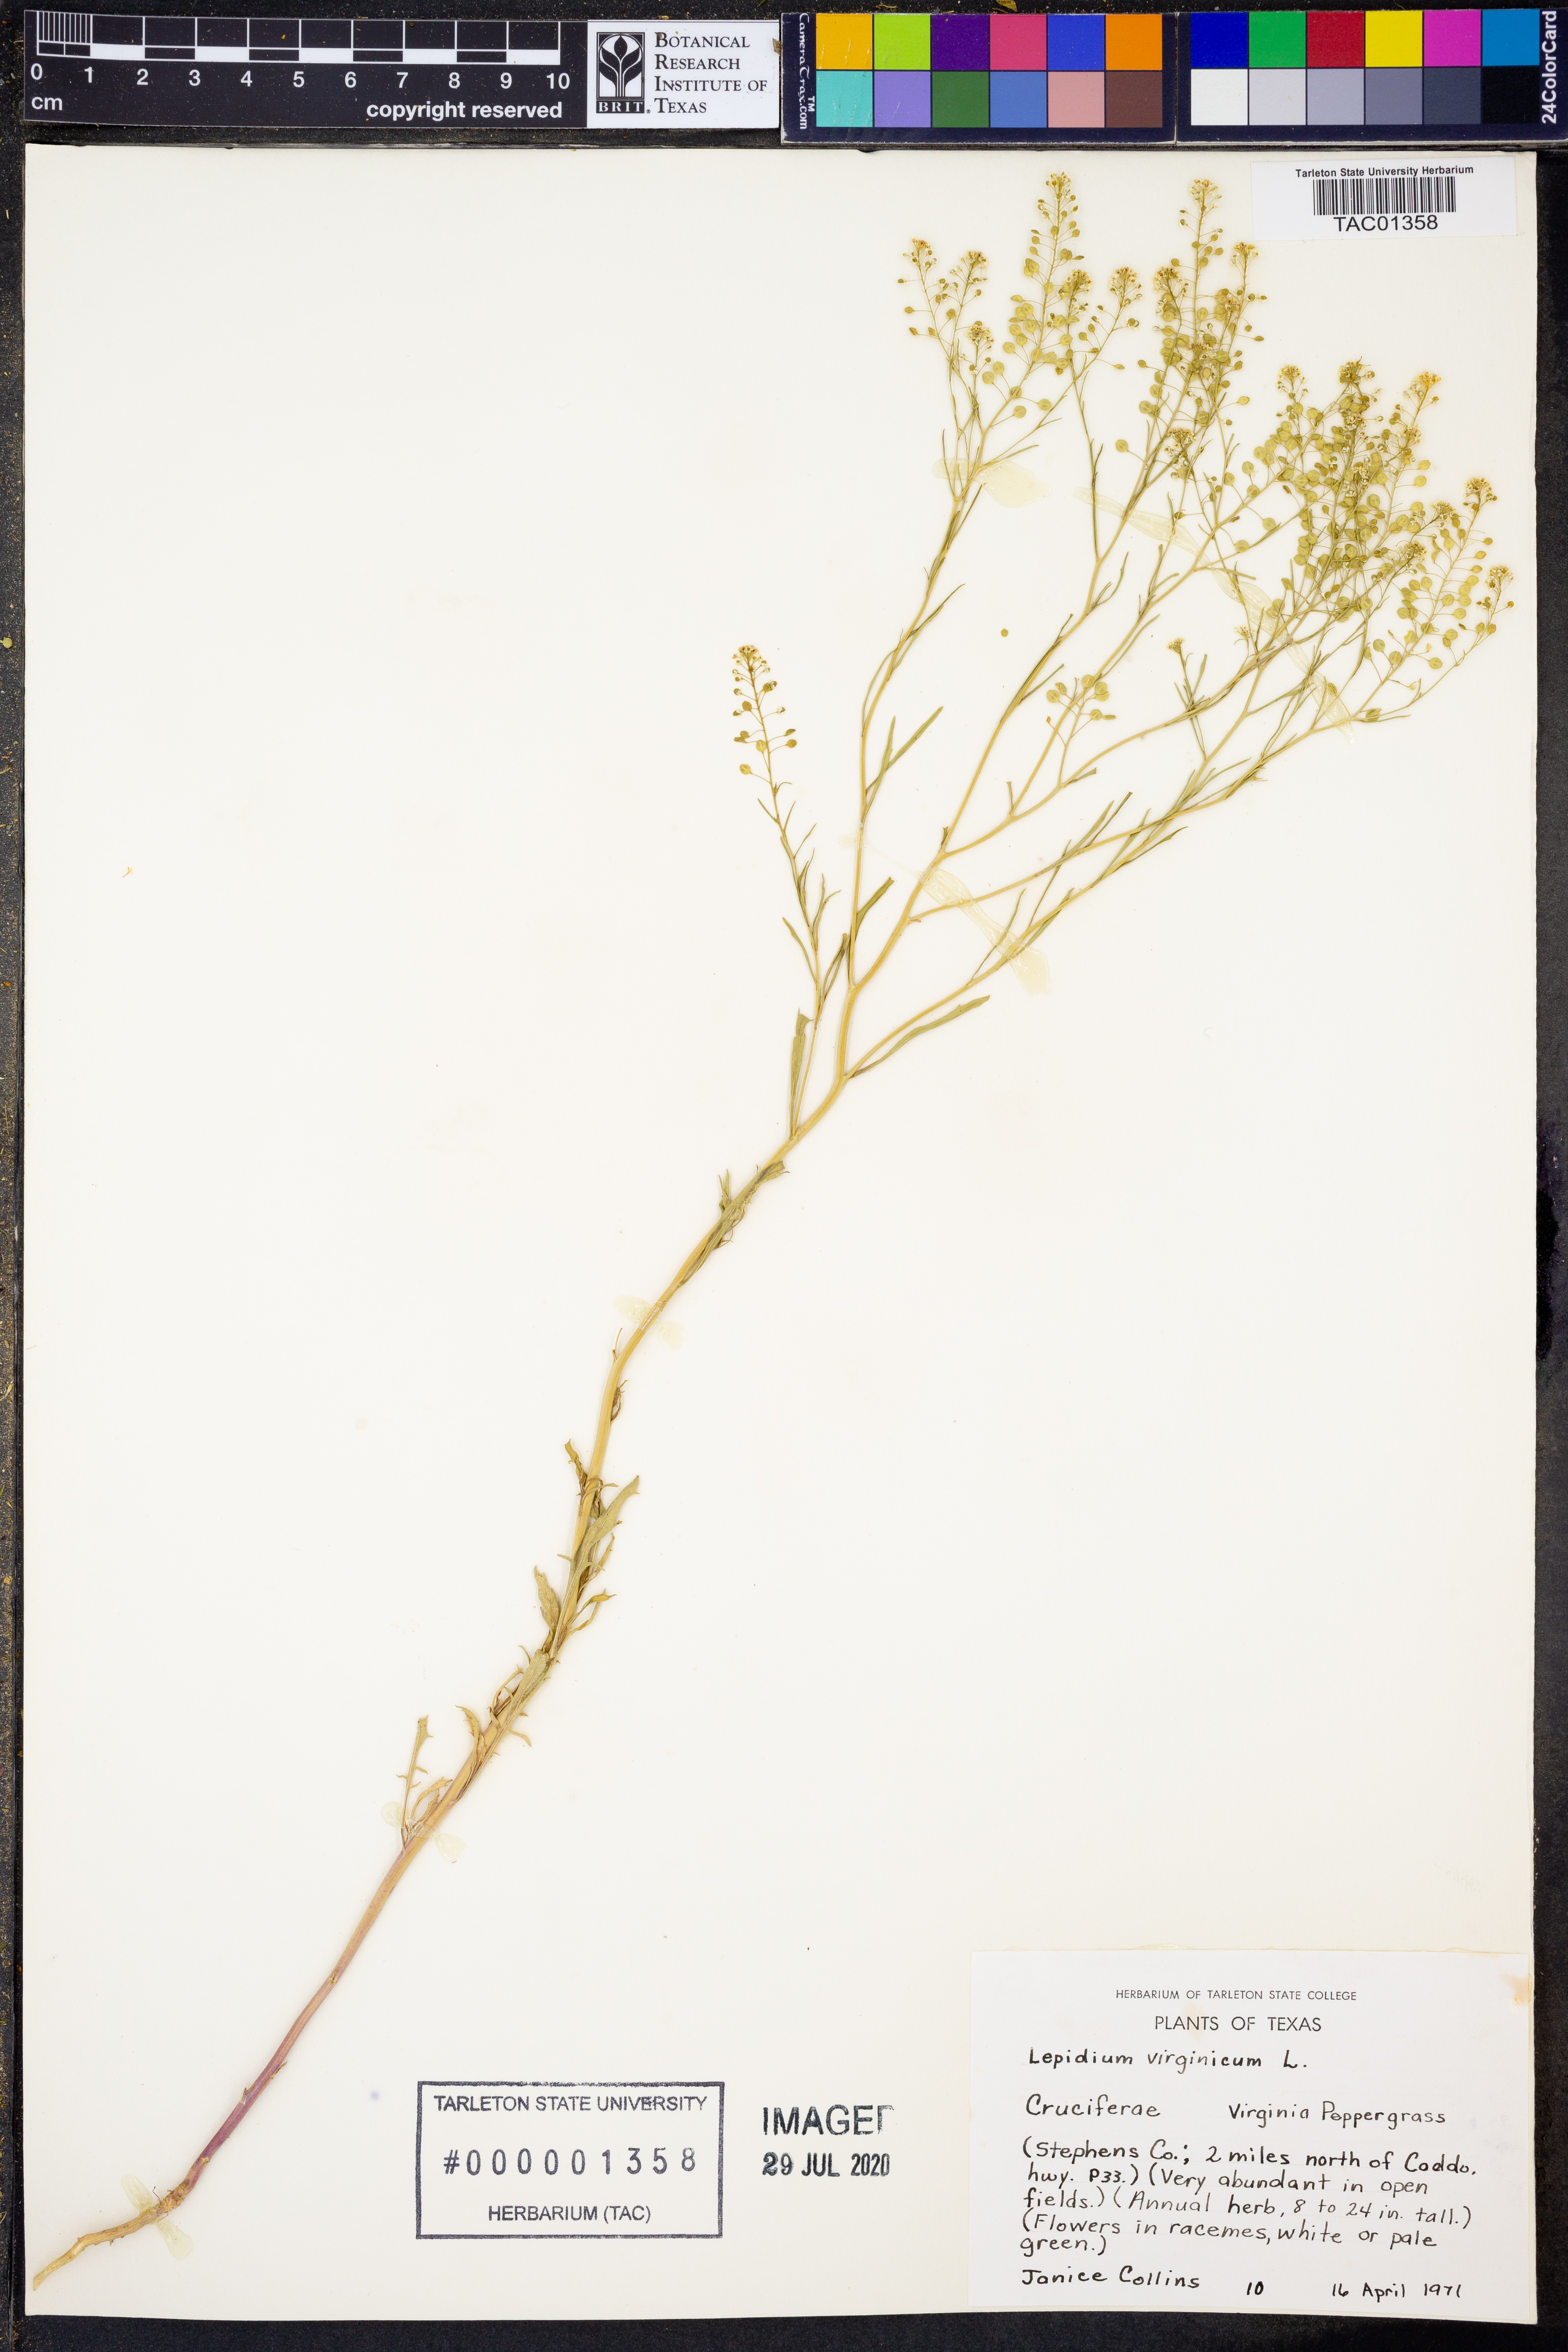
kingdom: Plantae
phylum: Tracheophyta
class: Magnoliopsida
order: Brassicales
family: Brassicaceae
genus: Lepidium
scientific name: Lepidium virginicum
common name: Least pepperwort
